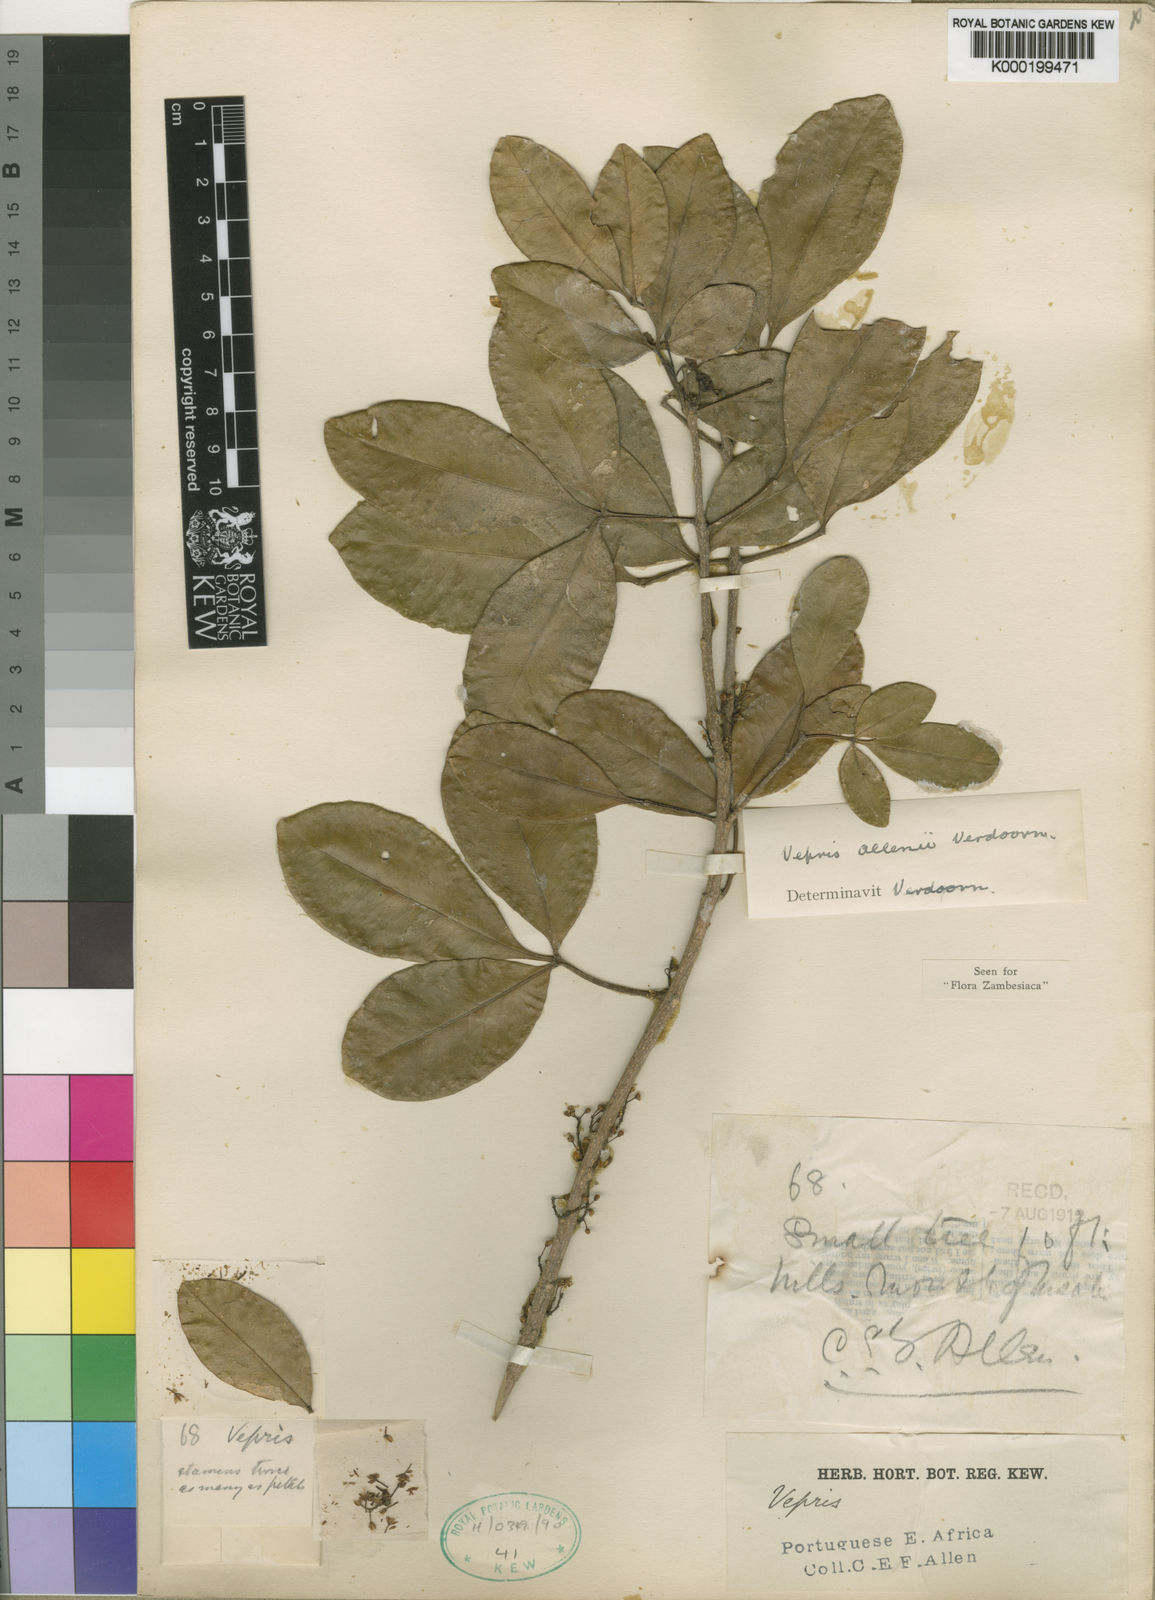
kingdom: Plantae
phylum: Tracheophyta
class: Magnoliopsida
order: Sapindales
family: Rutaceae
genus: Vepris
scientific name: Vepris allenii
